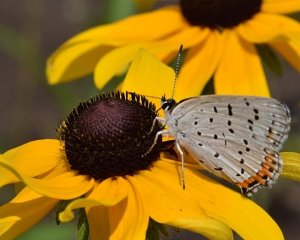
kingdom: Animalia
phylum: Arthropoda
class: Insecta
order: Lepidoptera
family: Lycaenidae
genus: Nacaduba
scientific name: Nacaduba dyopa
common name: Gray Copper
